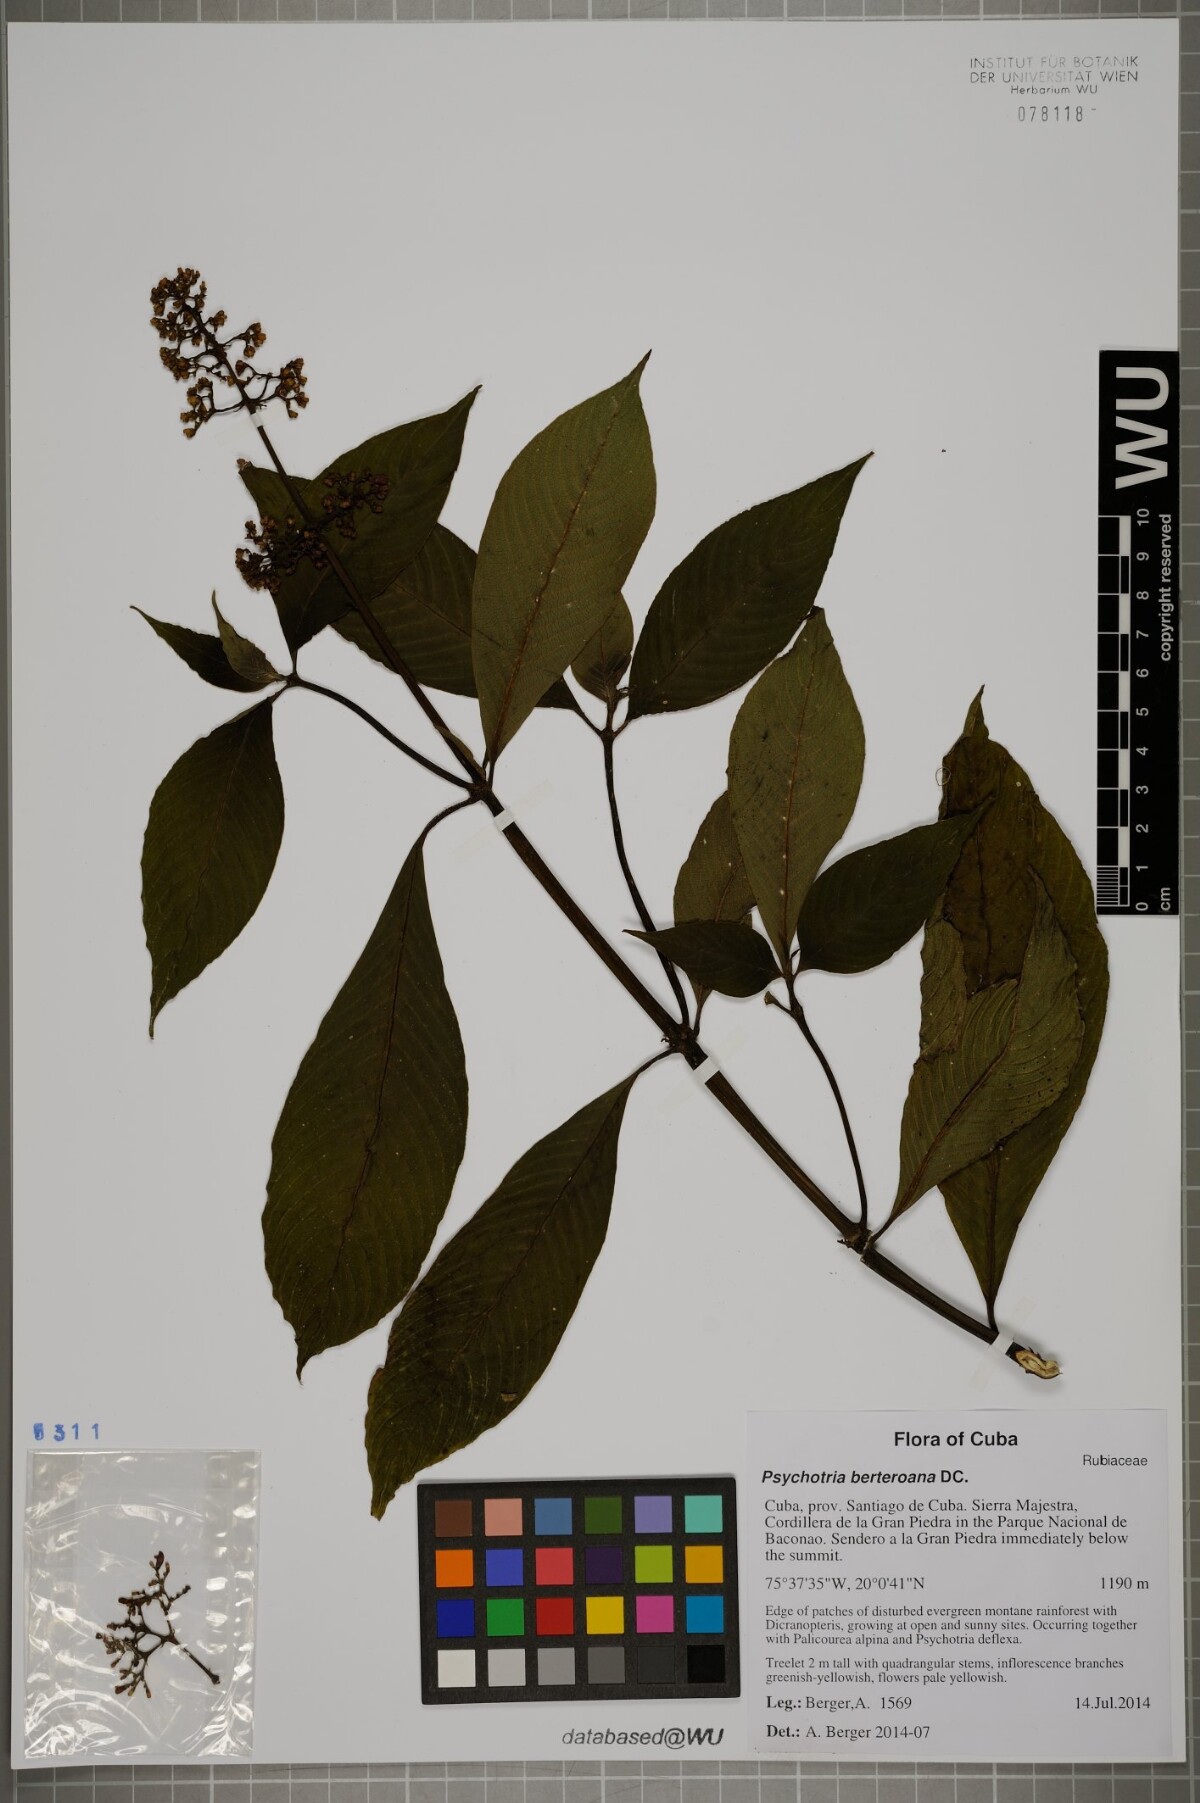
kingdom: Plantae
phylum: Tracheophyta
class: Magnoliopsida
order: Gentianales
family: Rubiaceae
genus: Palicourea
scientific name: Palicourea berteroana
